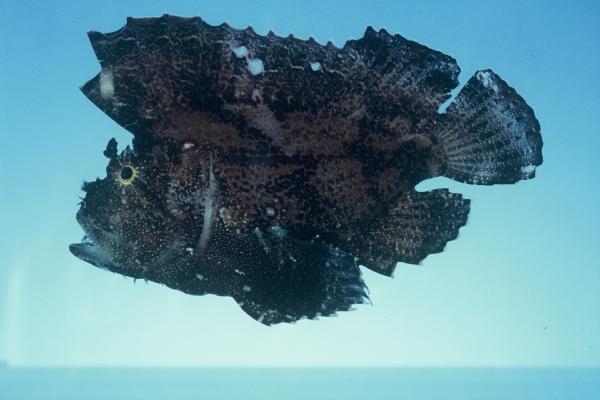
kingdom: Animalia
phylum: Chordata
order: Scorpaeniformes
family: Scorpaenidae
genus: Taenianotus
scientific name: Taenianotus triacanthus
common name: Leaf scorpionfish
